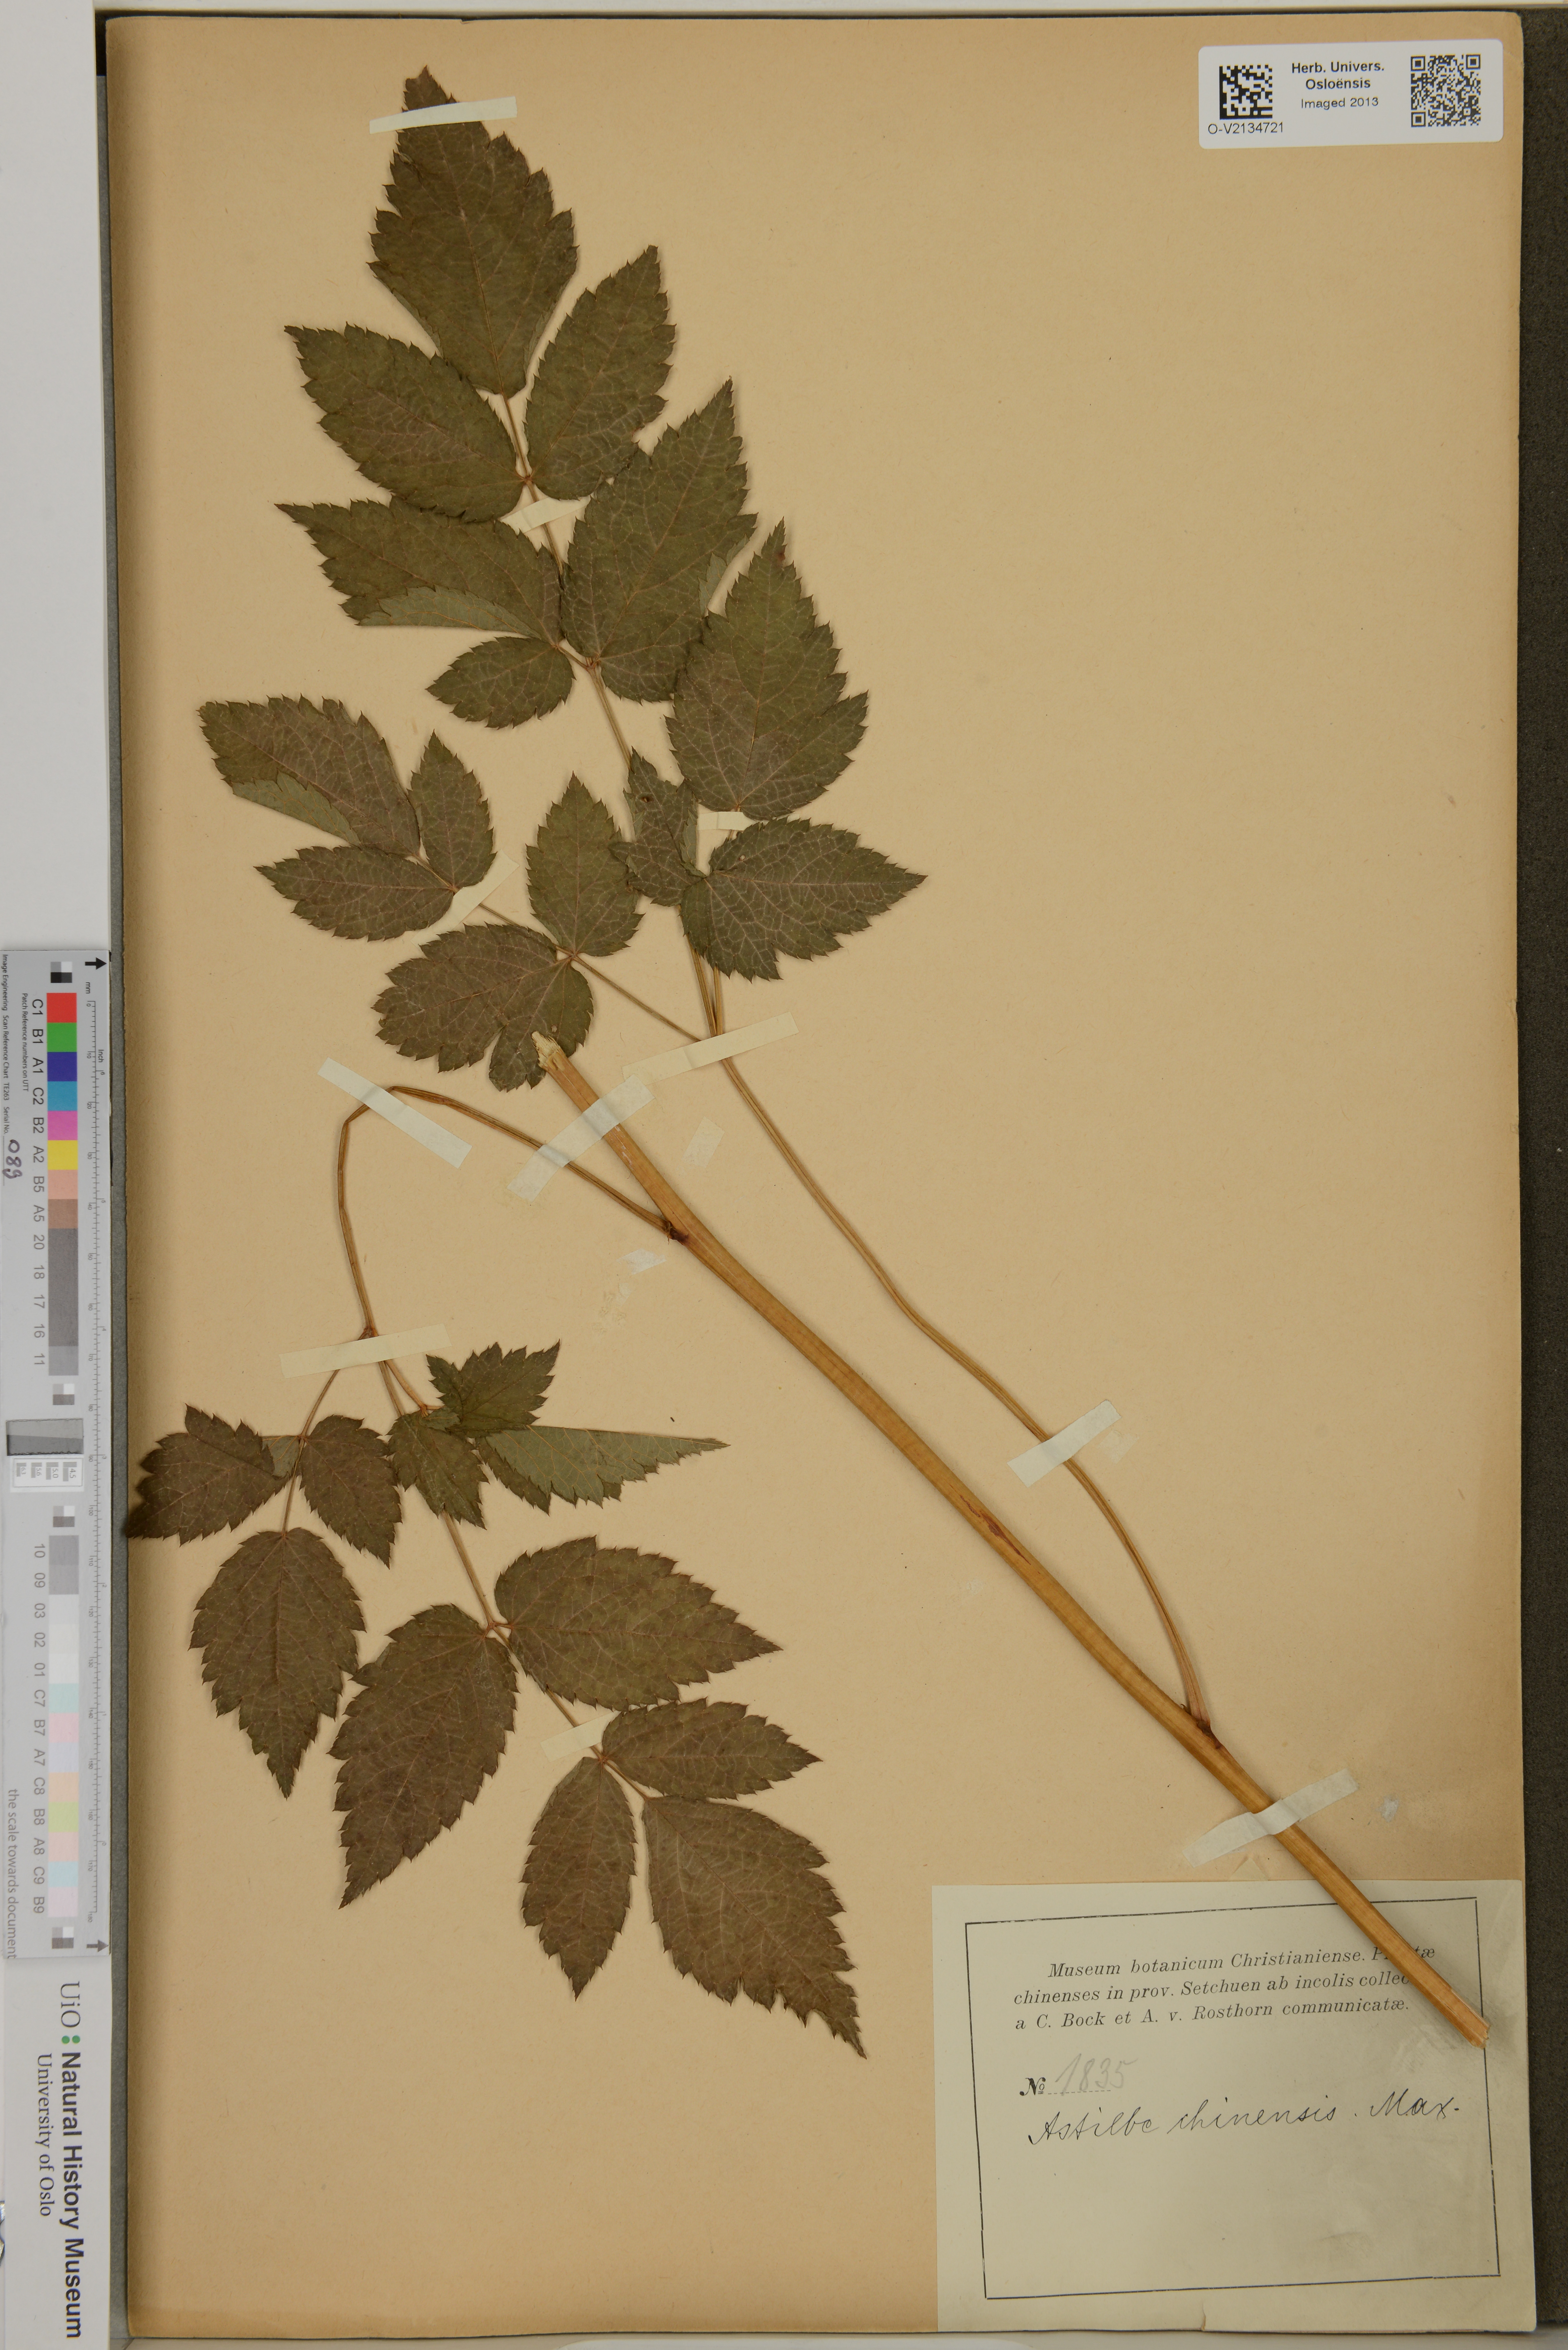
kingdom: Plantae
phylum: Tracheophyta
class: Magnoliopsida
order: Saxifragales
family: Saxifragaceae
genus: Astilbe
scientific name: Astilbe rubra
